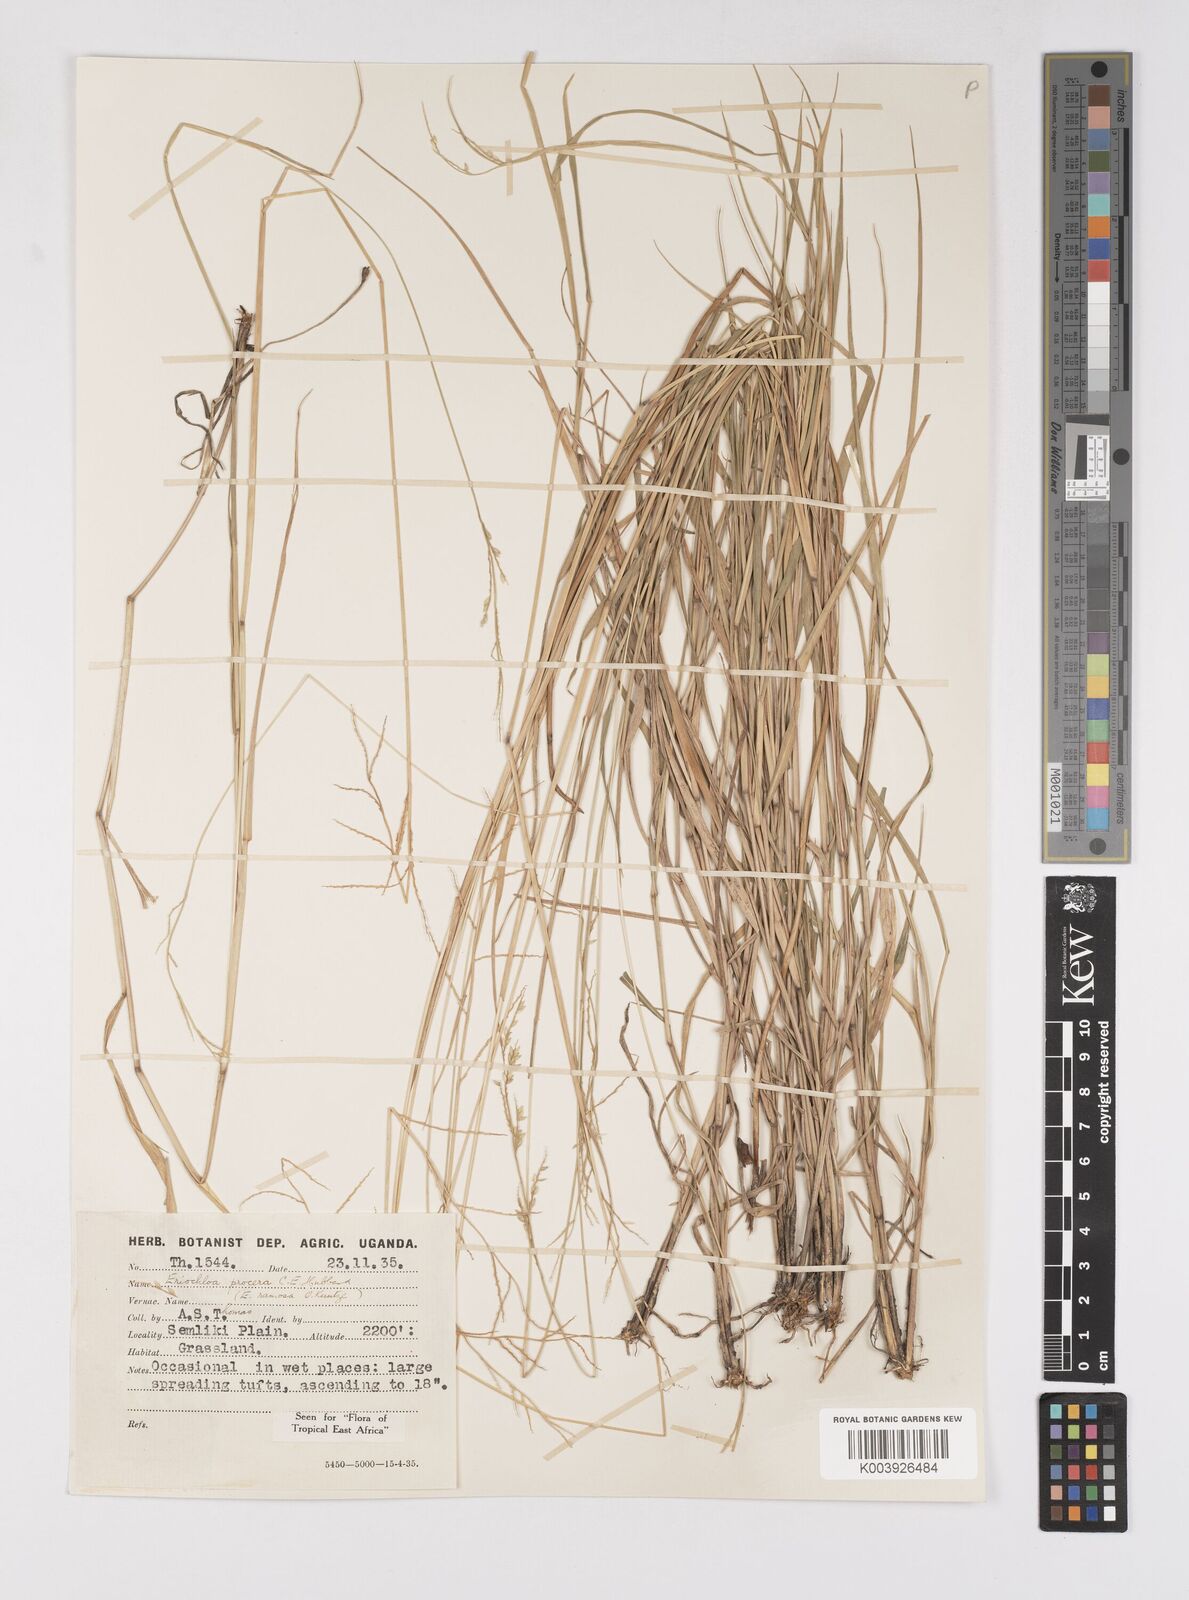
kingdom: Plantae
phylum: Tracheophyta
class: Liliopsida
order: Poales
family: Poaceae
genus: Eriochloa
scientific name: Eriochloa procera
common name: Spring grass
